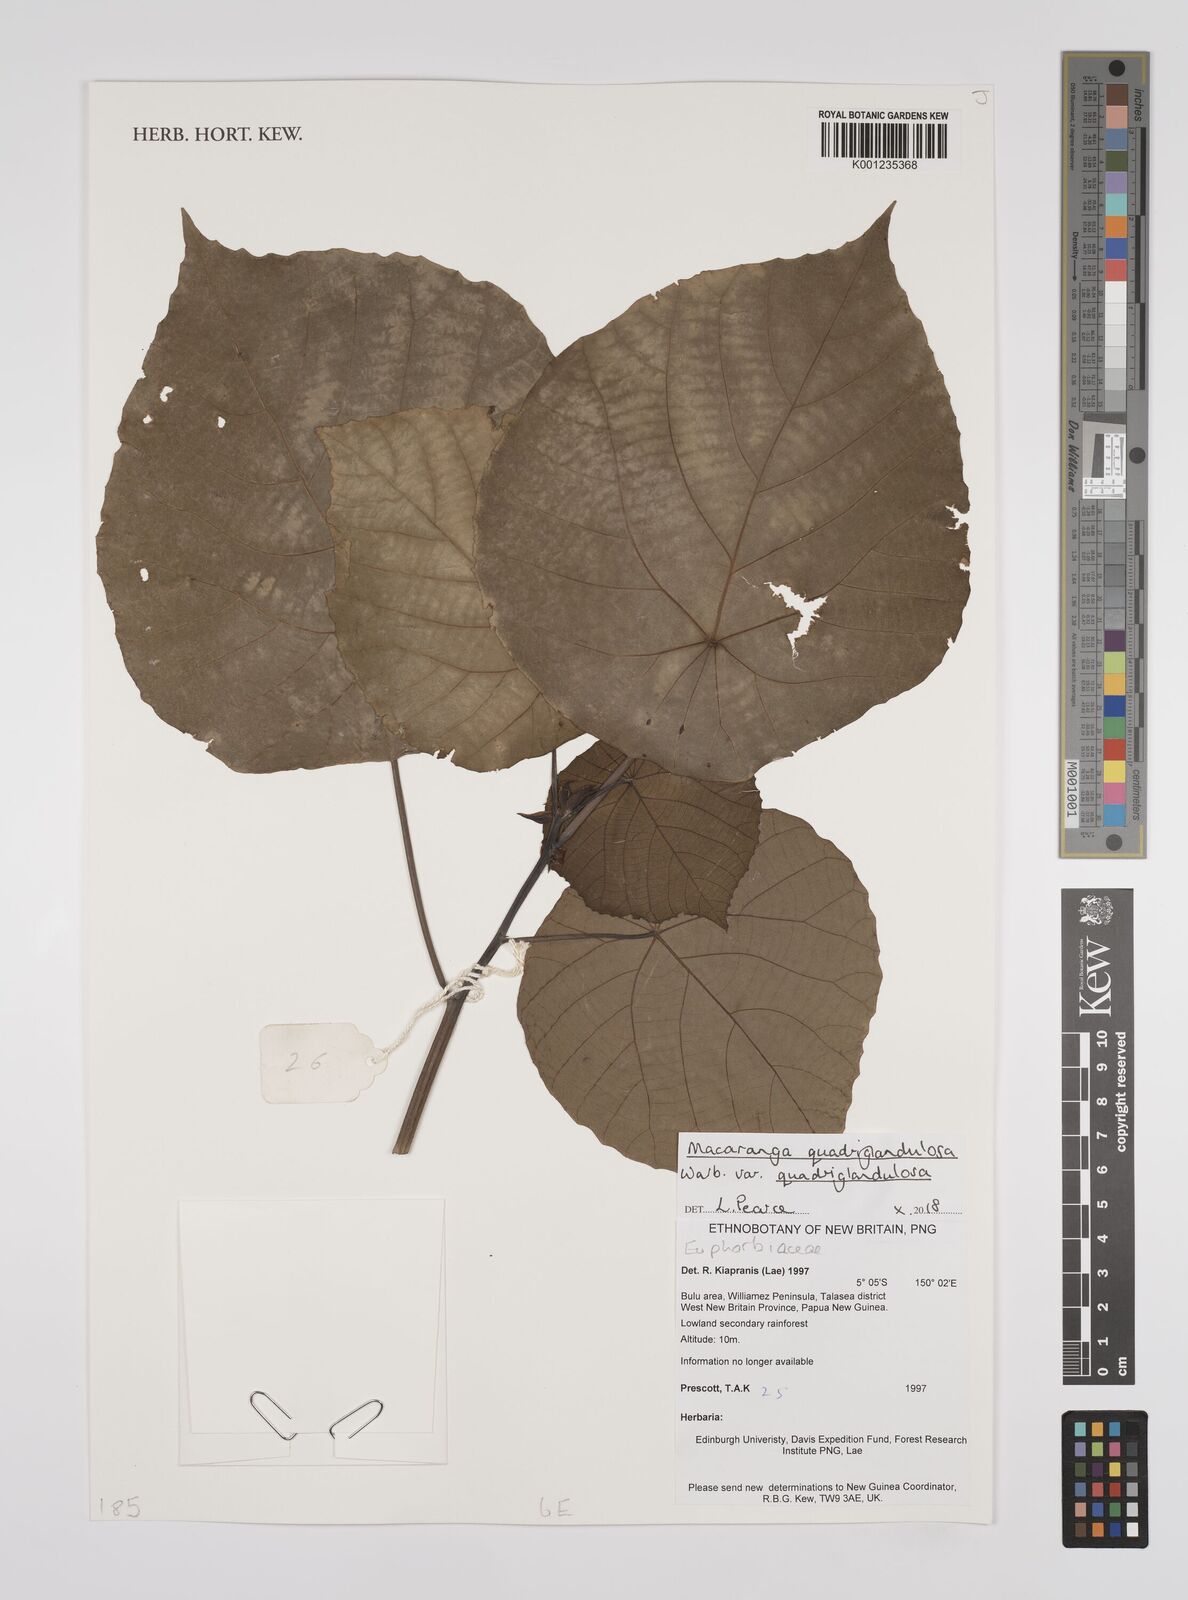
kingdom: Plantae
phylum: Tracheophyta
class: Magnoliopsida
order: Malpighiales
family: Euphorbiaceae
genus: Macaranga
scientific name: Macaranga quadriglandulosa
